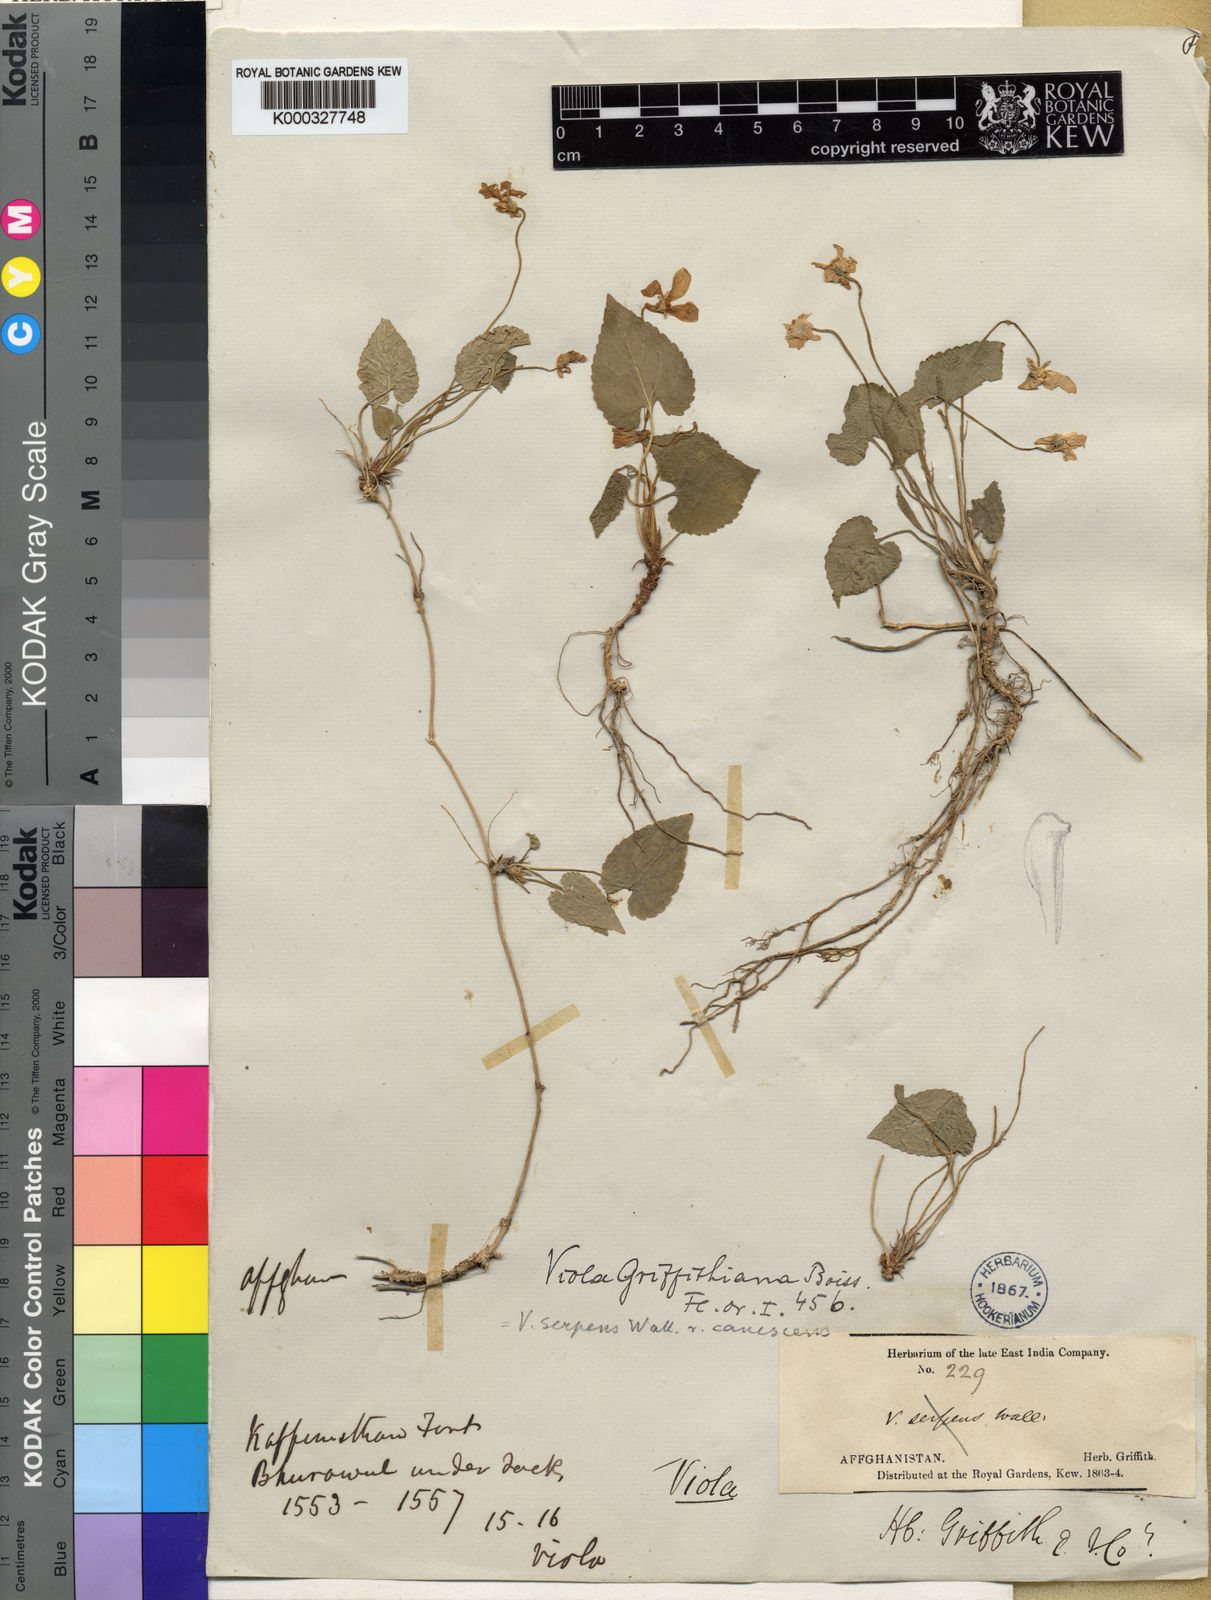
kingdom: Plantae
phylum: Tracheophyta
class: Magnoliopsida
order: Malpighiales
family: Violaceae
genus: Viola
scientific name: Viola pilosa
